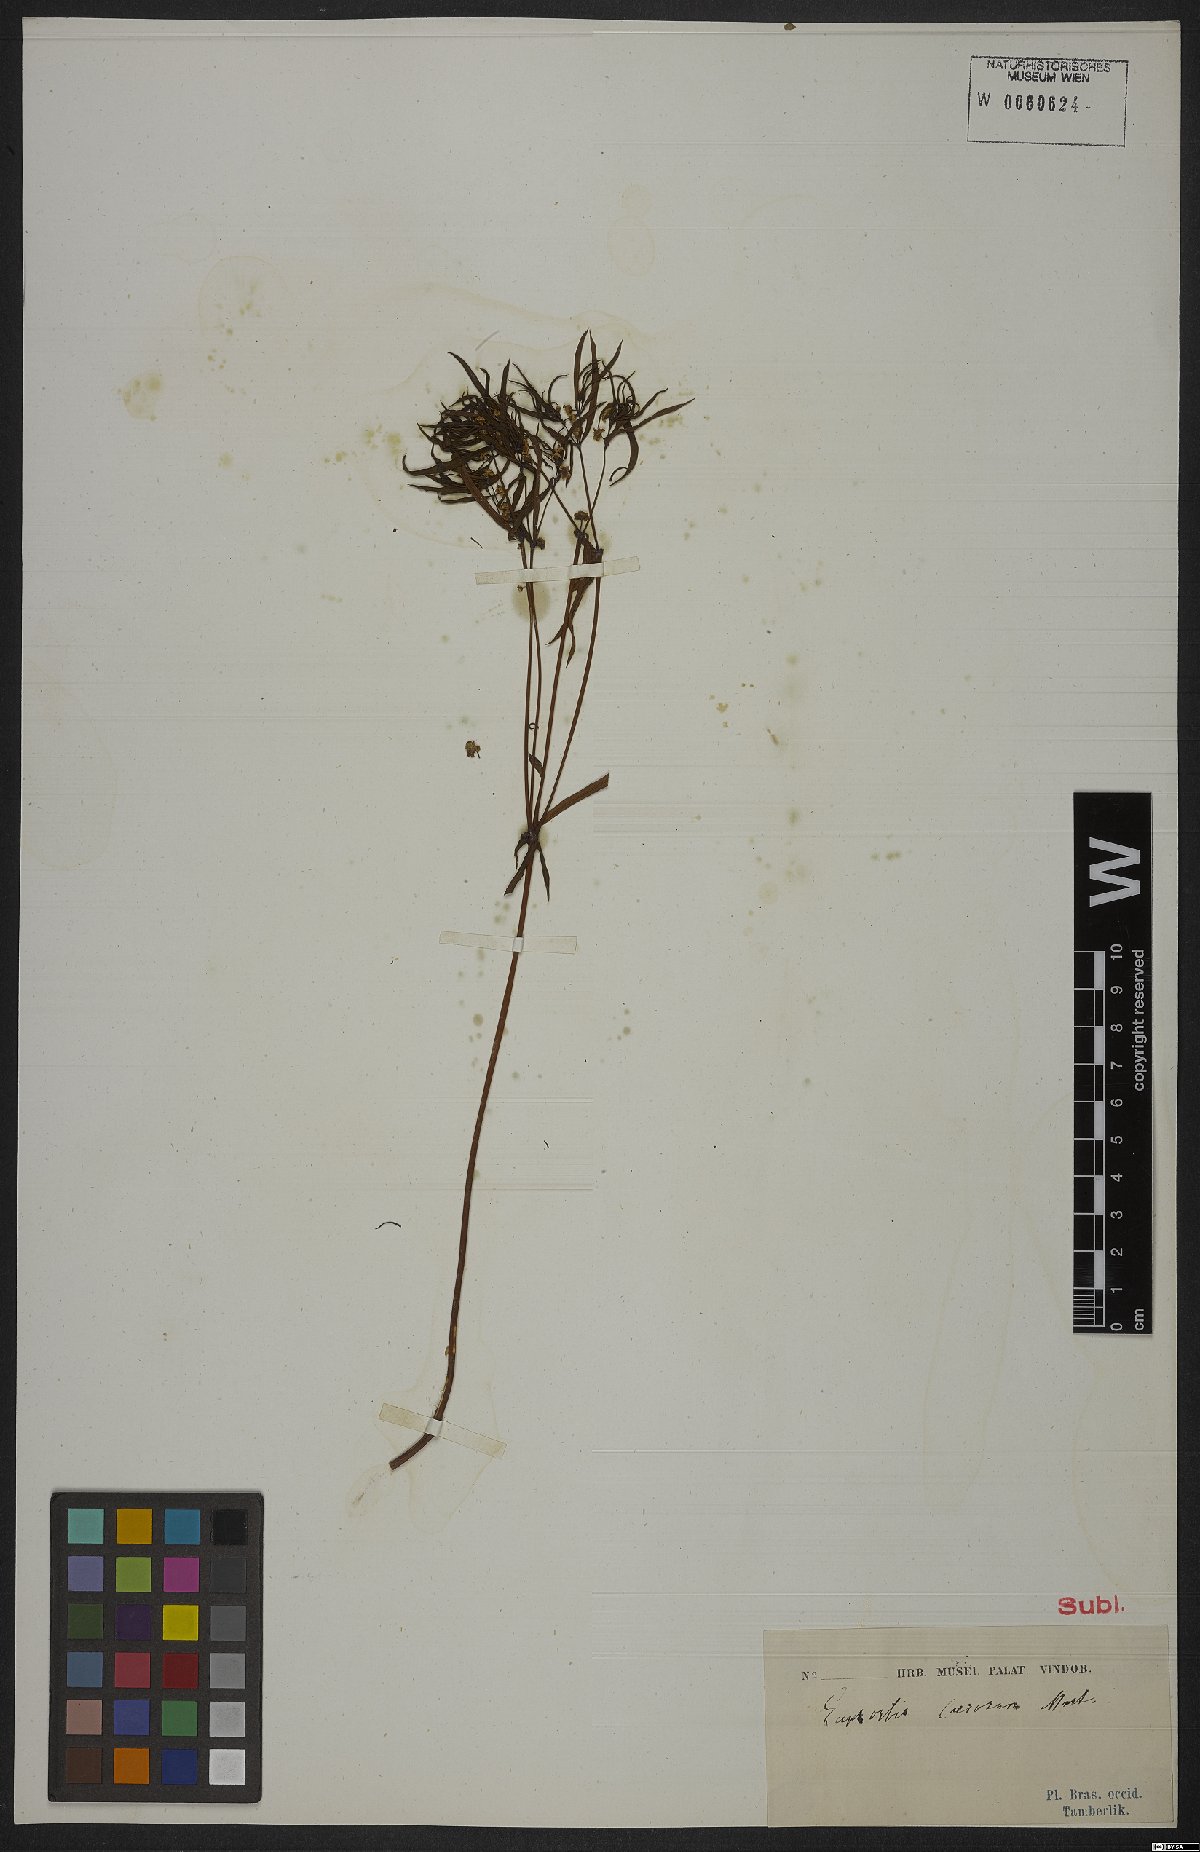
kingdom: Plantae
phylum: Tracheophyta
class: Magnoliopsida
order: Malpighiales
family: Euphorbiaceae
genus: Euphorbia
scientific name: Euphorbia potentilloides
